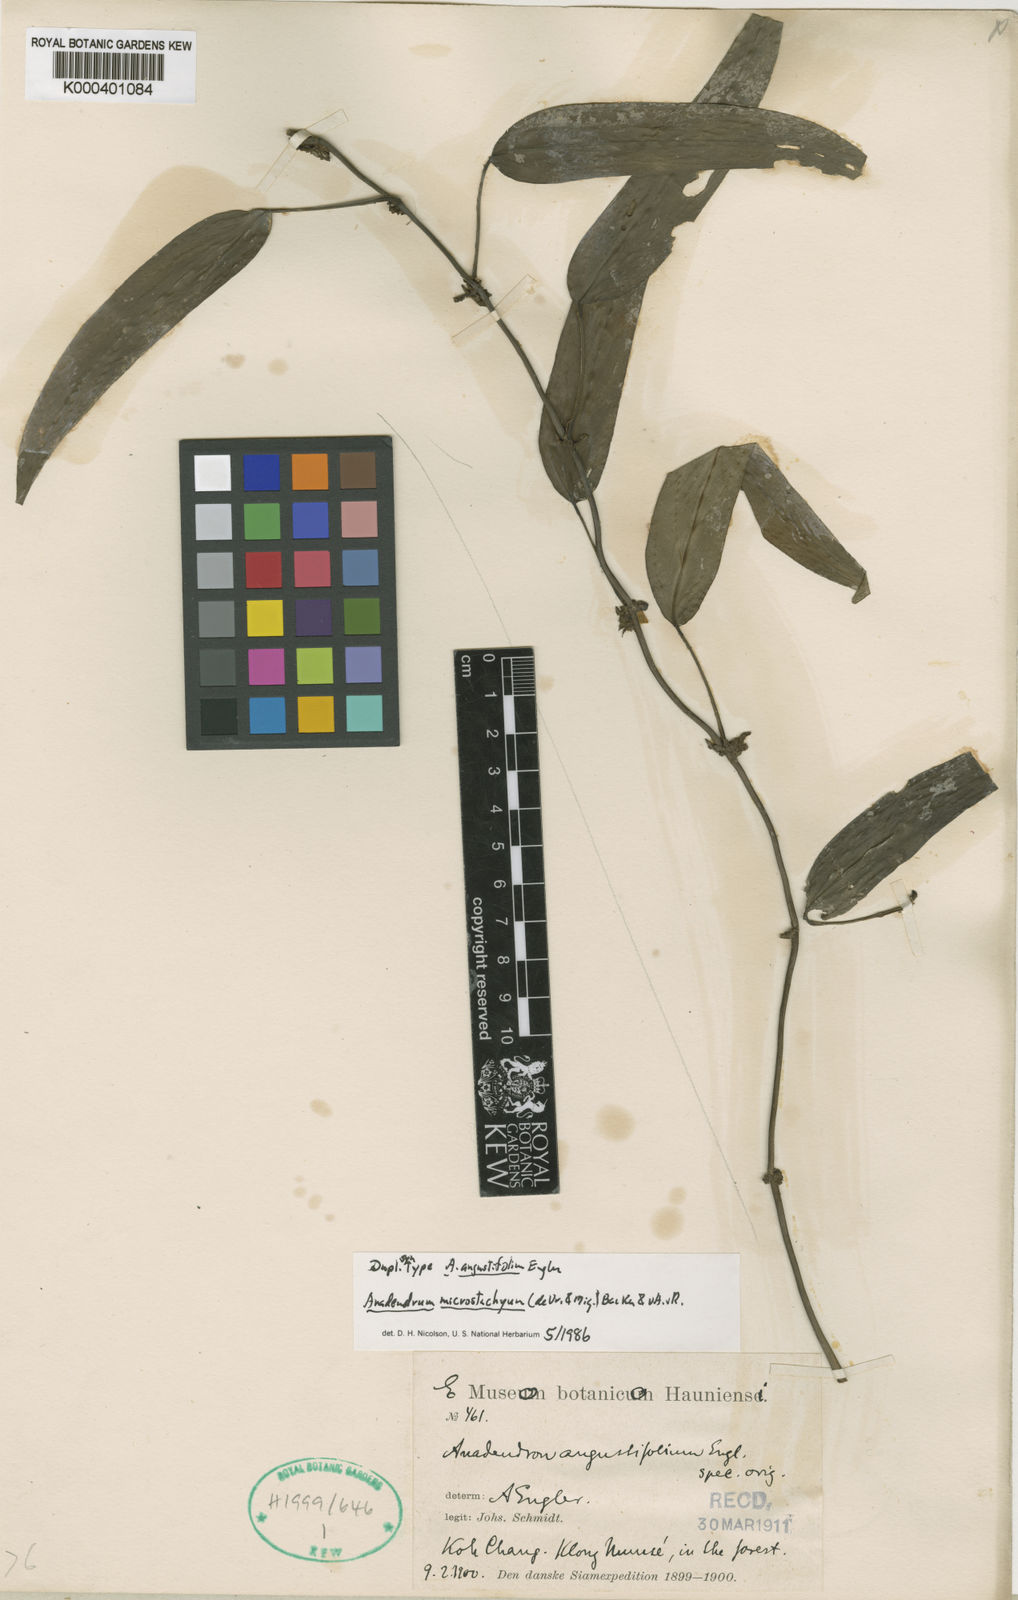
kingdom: Plantae
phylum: Tracheophyta
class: Liliopsida
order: Alismatales
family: Araceae
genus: Anadendrum
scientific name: Anadendrum microstachyum
